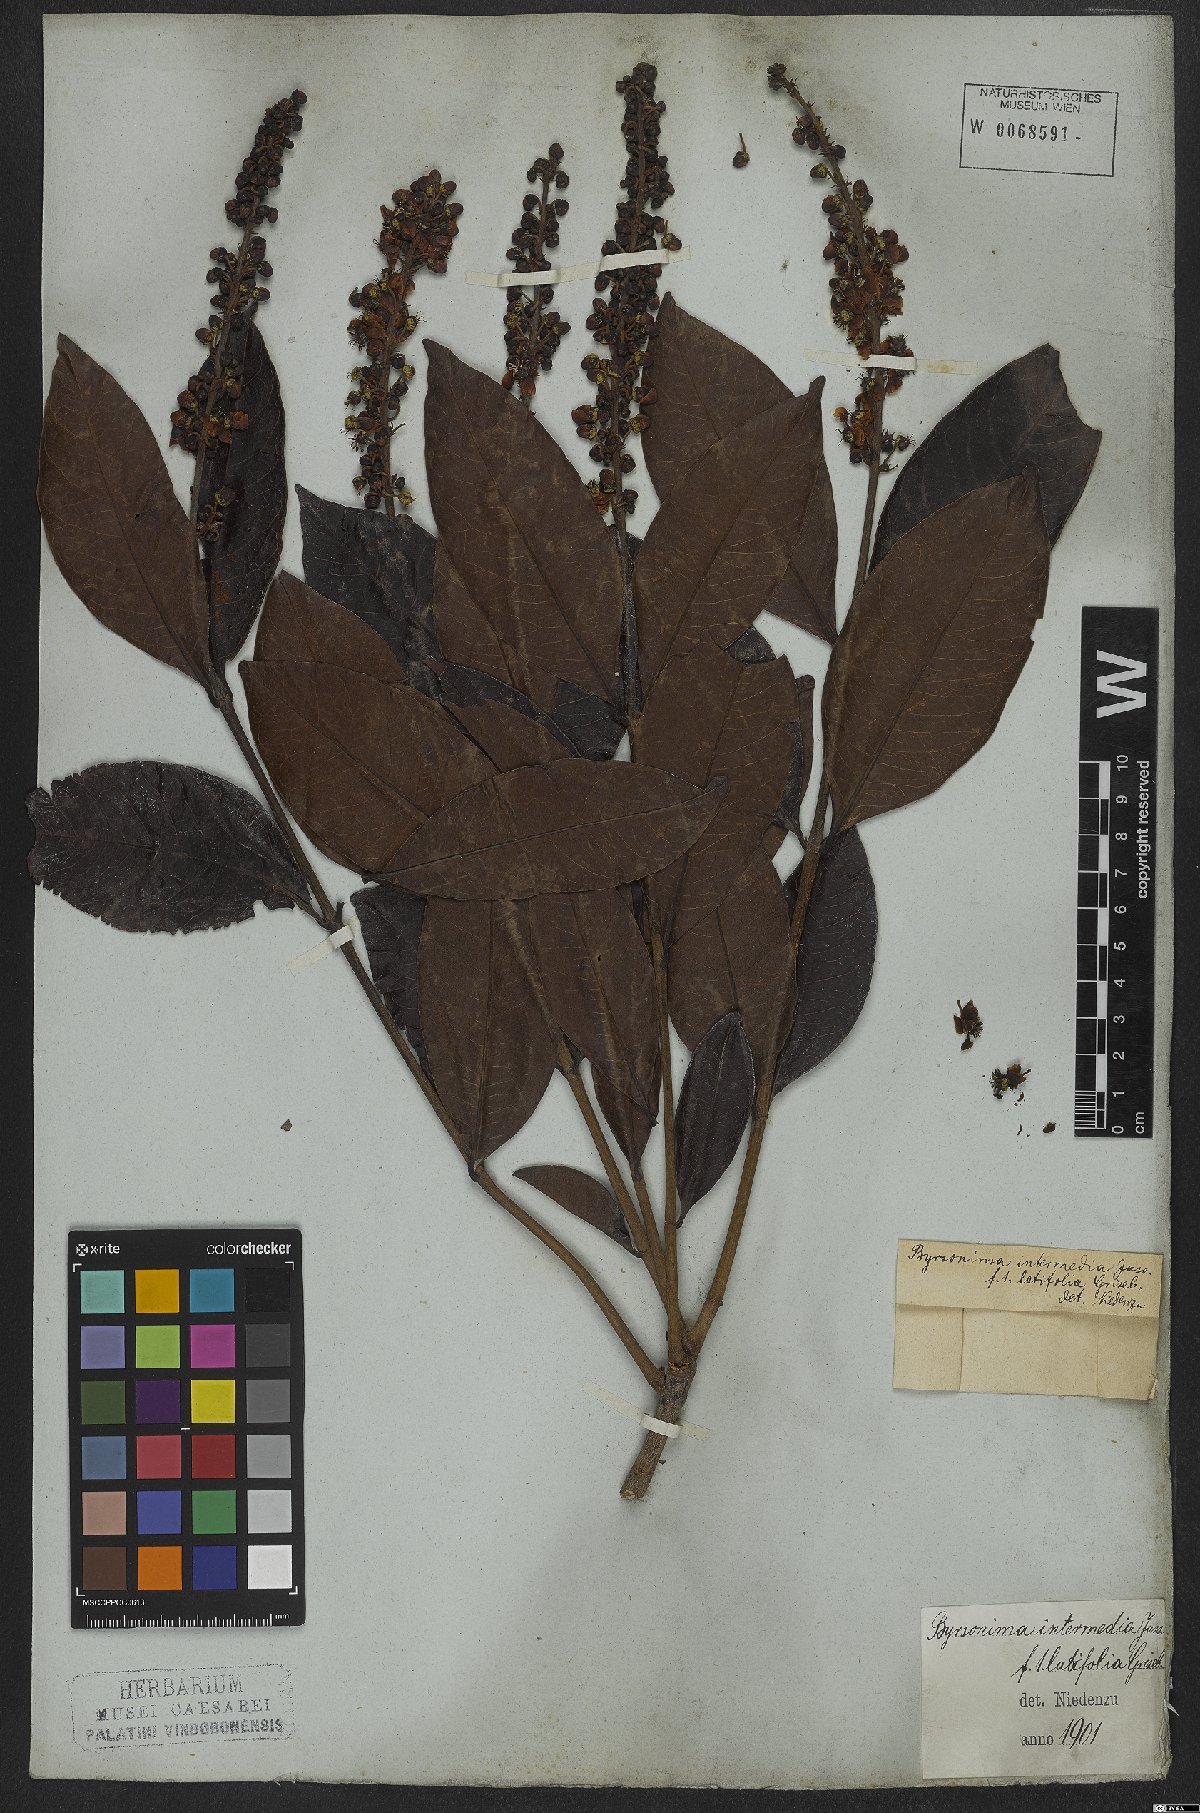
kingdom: Plantae
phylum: Tracheophyta
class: Magnoliopsida
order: Malpighiales
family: Malpighiaceae
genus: Byrsonima
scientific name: Byrsonima intermedia
